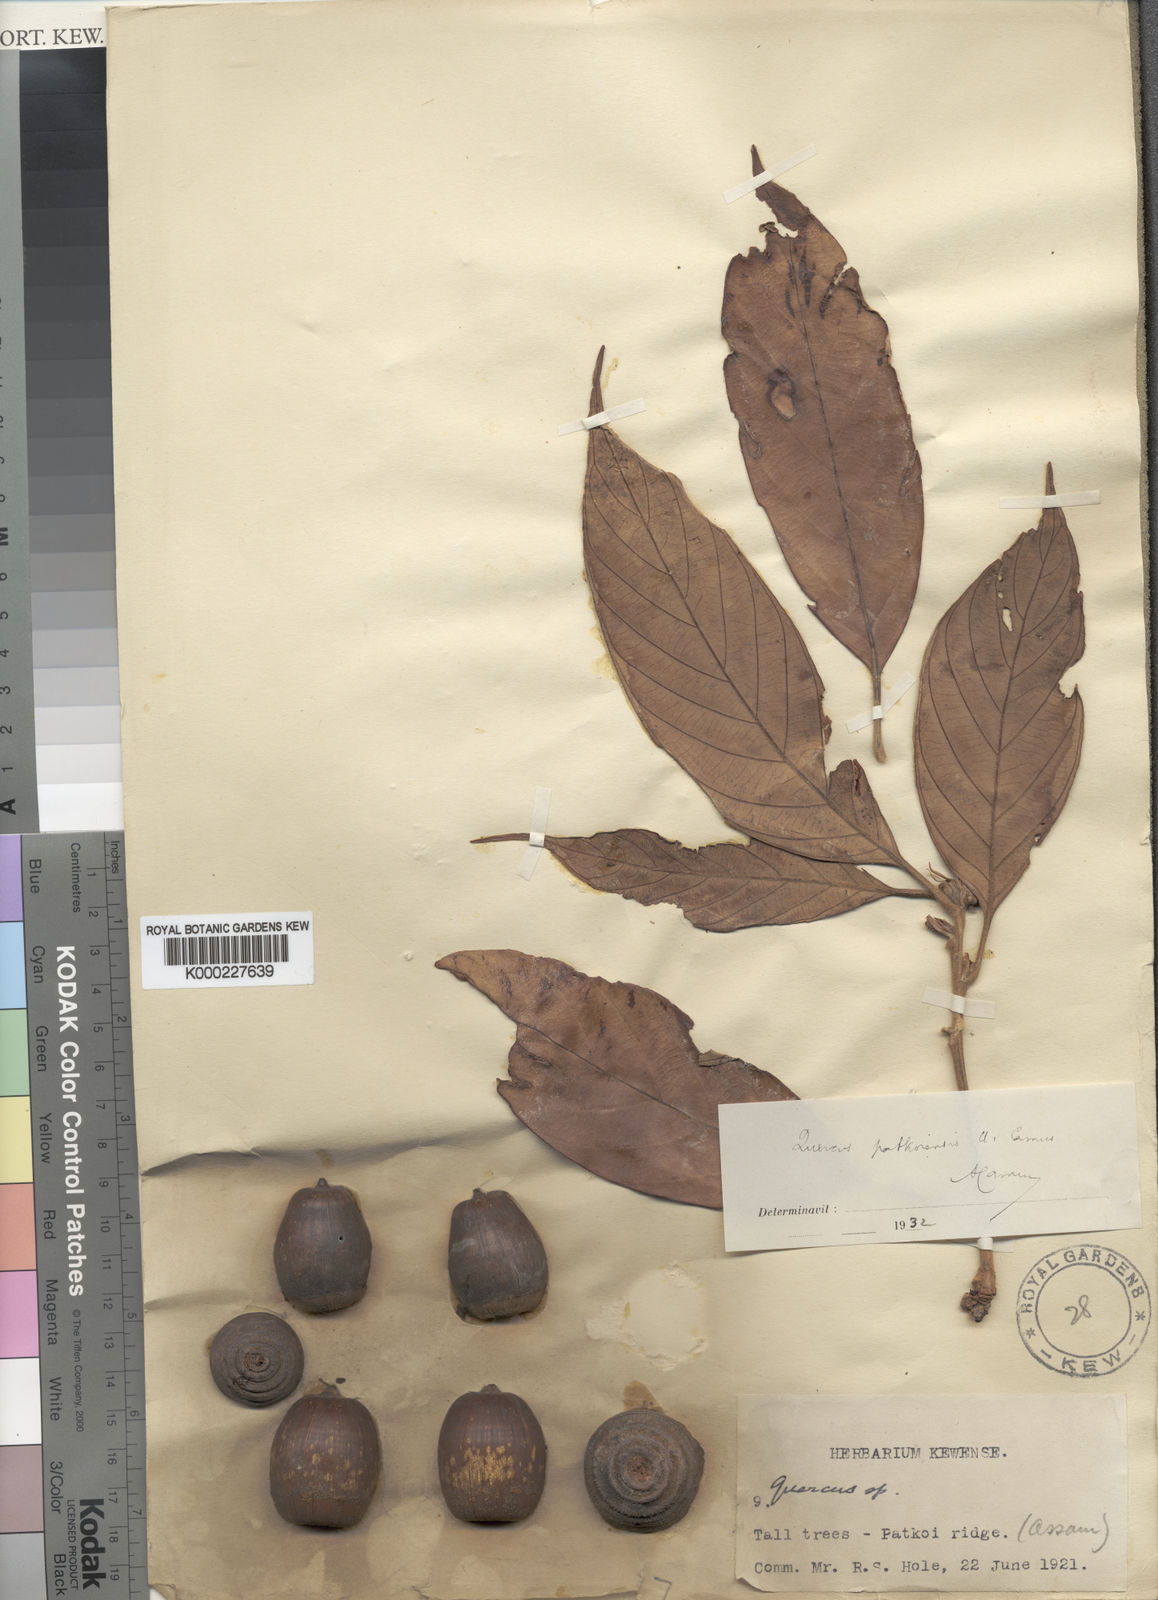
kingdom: Plantae
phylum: Tracheophyta
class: Magnoliopsida
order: Fagales
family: Fagaceae
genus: Quercus
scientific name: Quercus blakei
